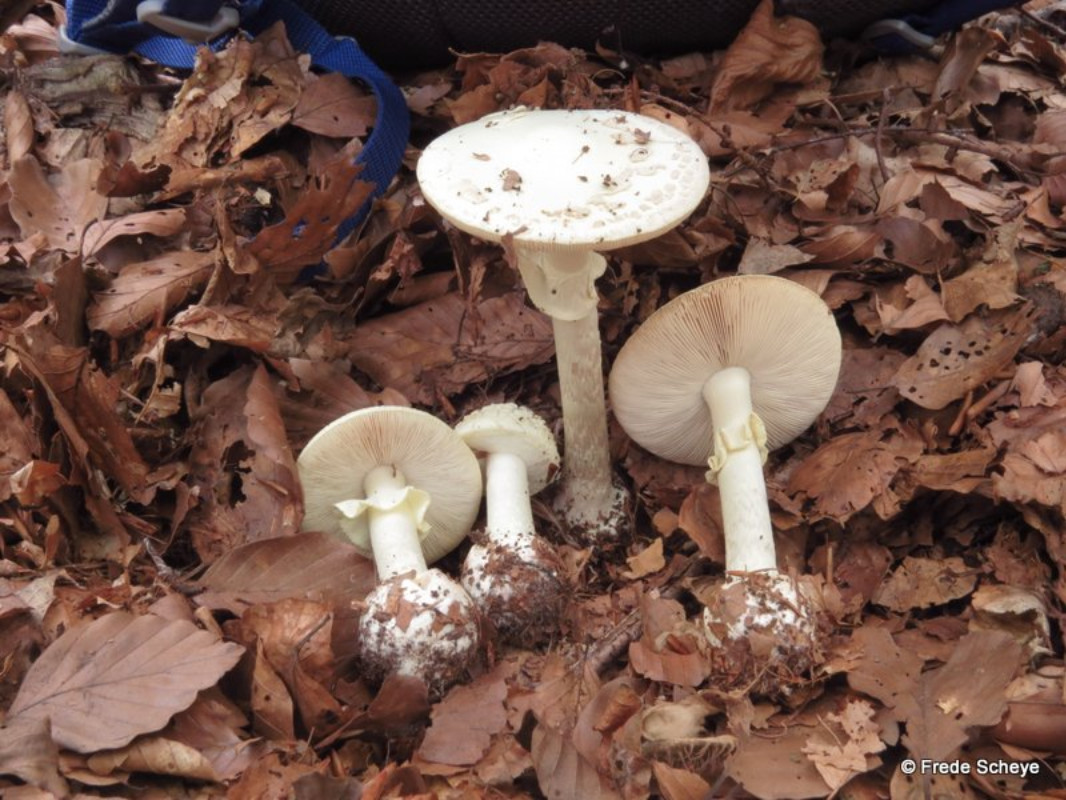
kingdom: Fungi
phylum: Basidiomycota
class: Agaricomycetes
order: Agaricales
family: Amanitaceae
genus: Amanita
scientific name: Amanita citrina
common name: kugleknoldet fluesvamp
